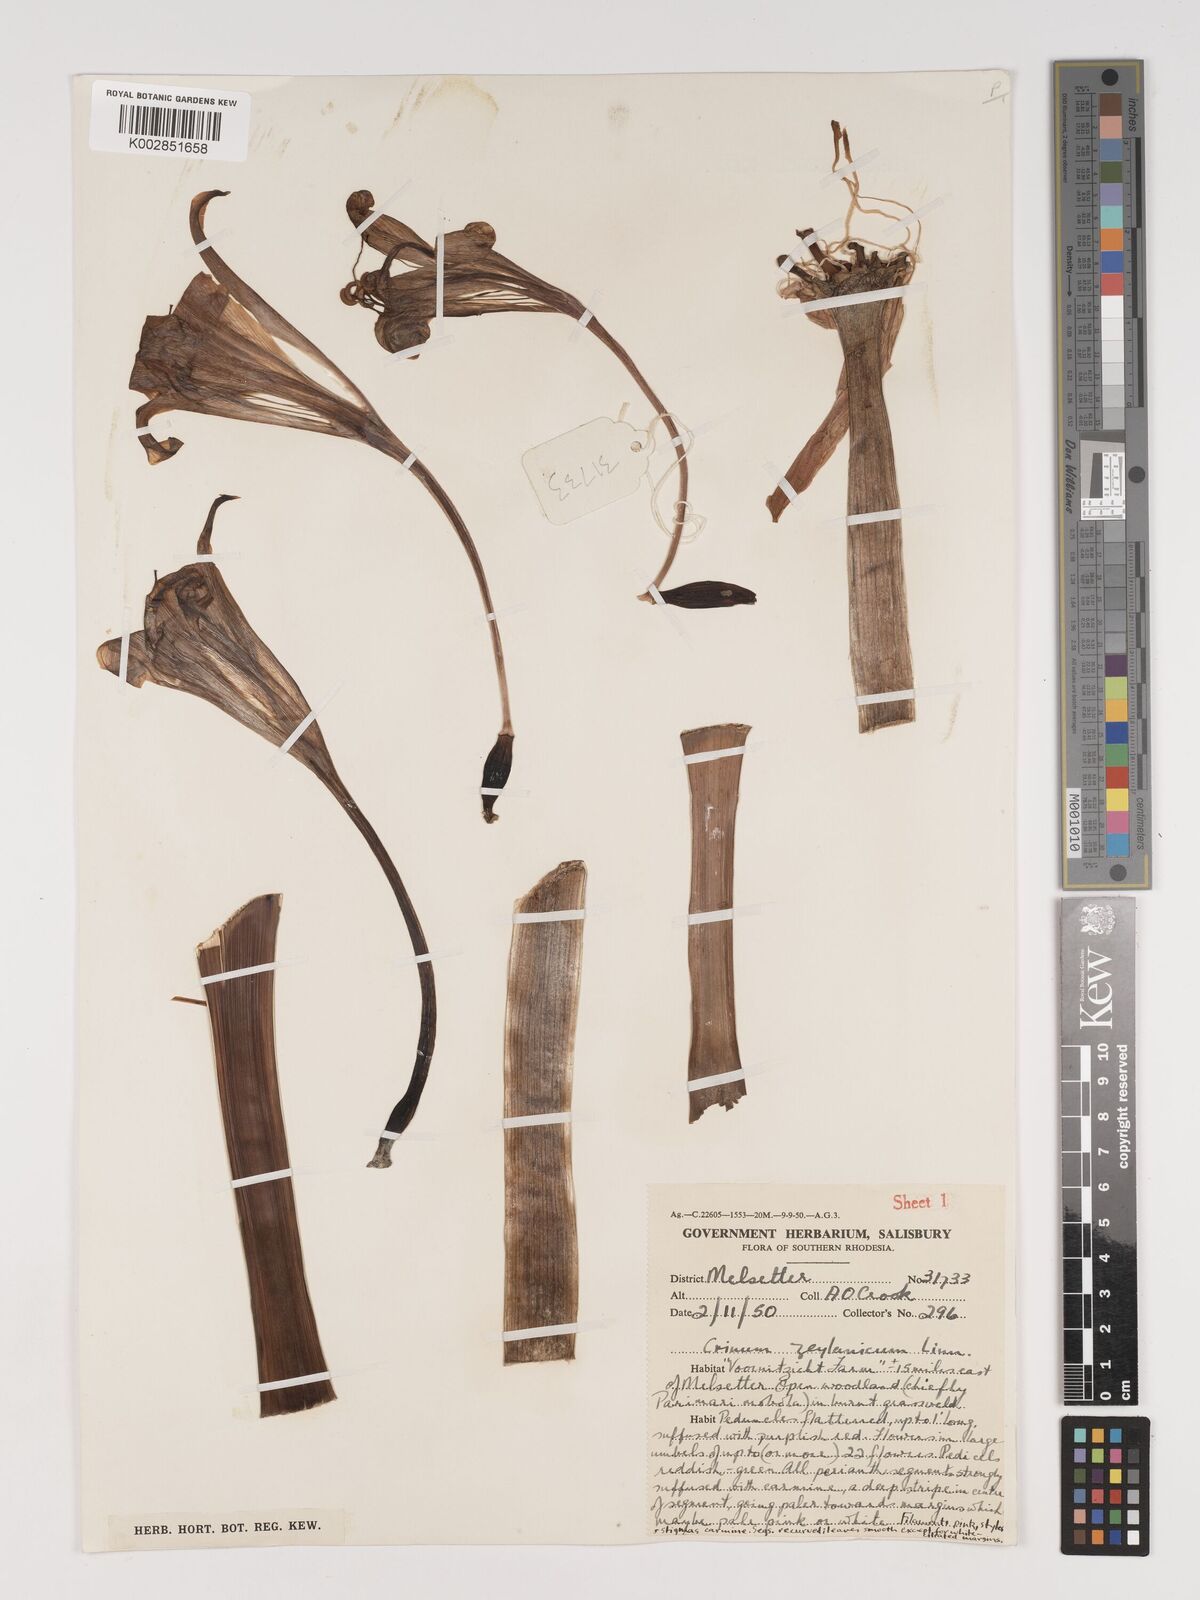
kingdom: Plantae
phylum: Tracheophyta
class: Liliopsida
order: Asparagales
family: Amaryllidaceae
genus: Crinum
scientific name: Crinum graminicola
